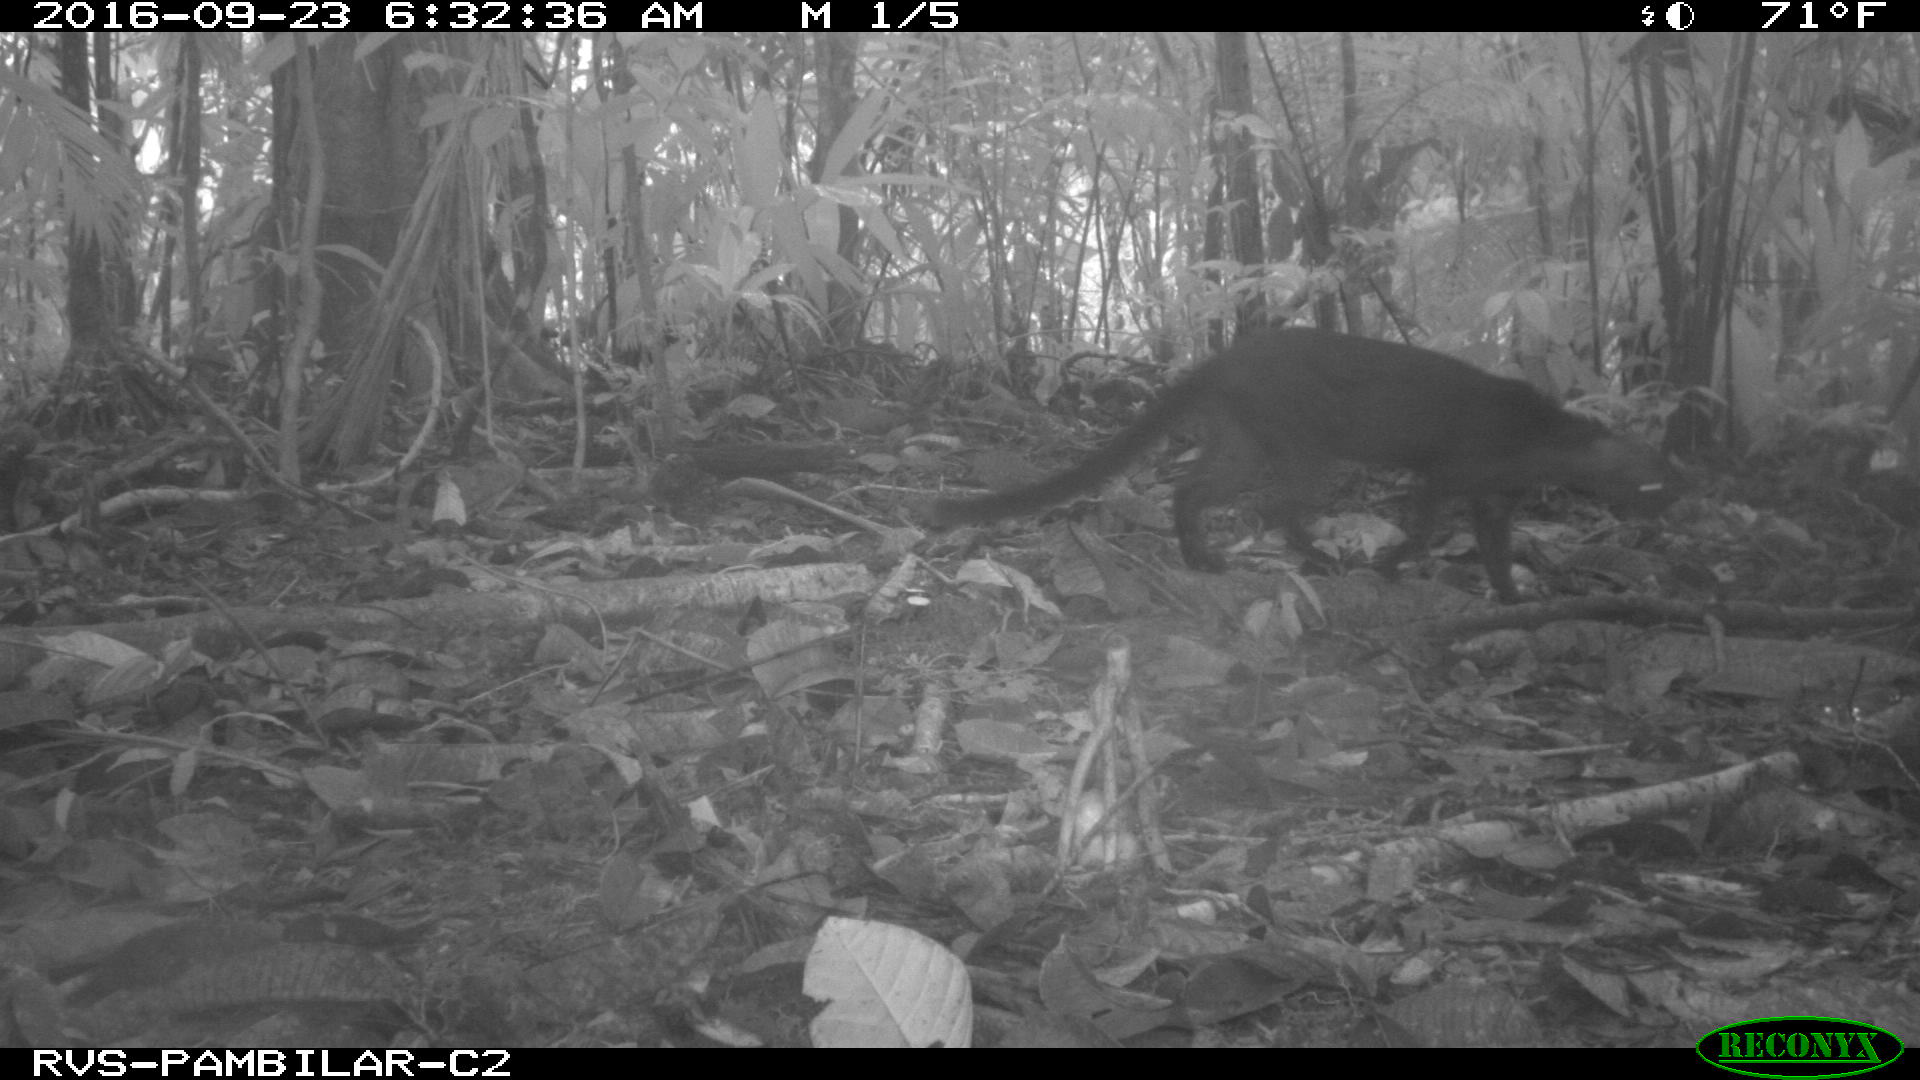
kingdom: Animalia
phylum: Chordata
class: Mammalia
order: Carnivora
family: Felidae
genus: Puma
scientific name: Puma yagouaroundi
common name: Jaguarundi
